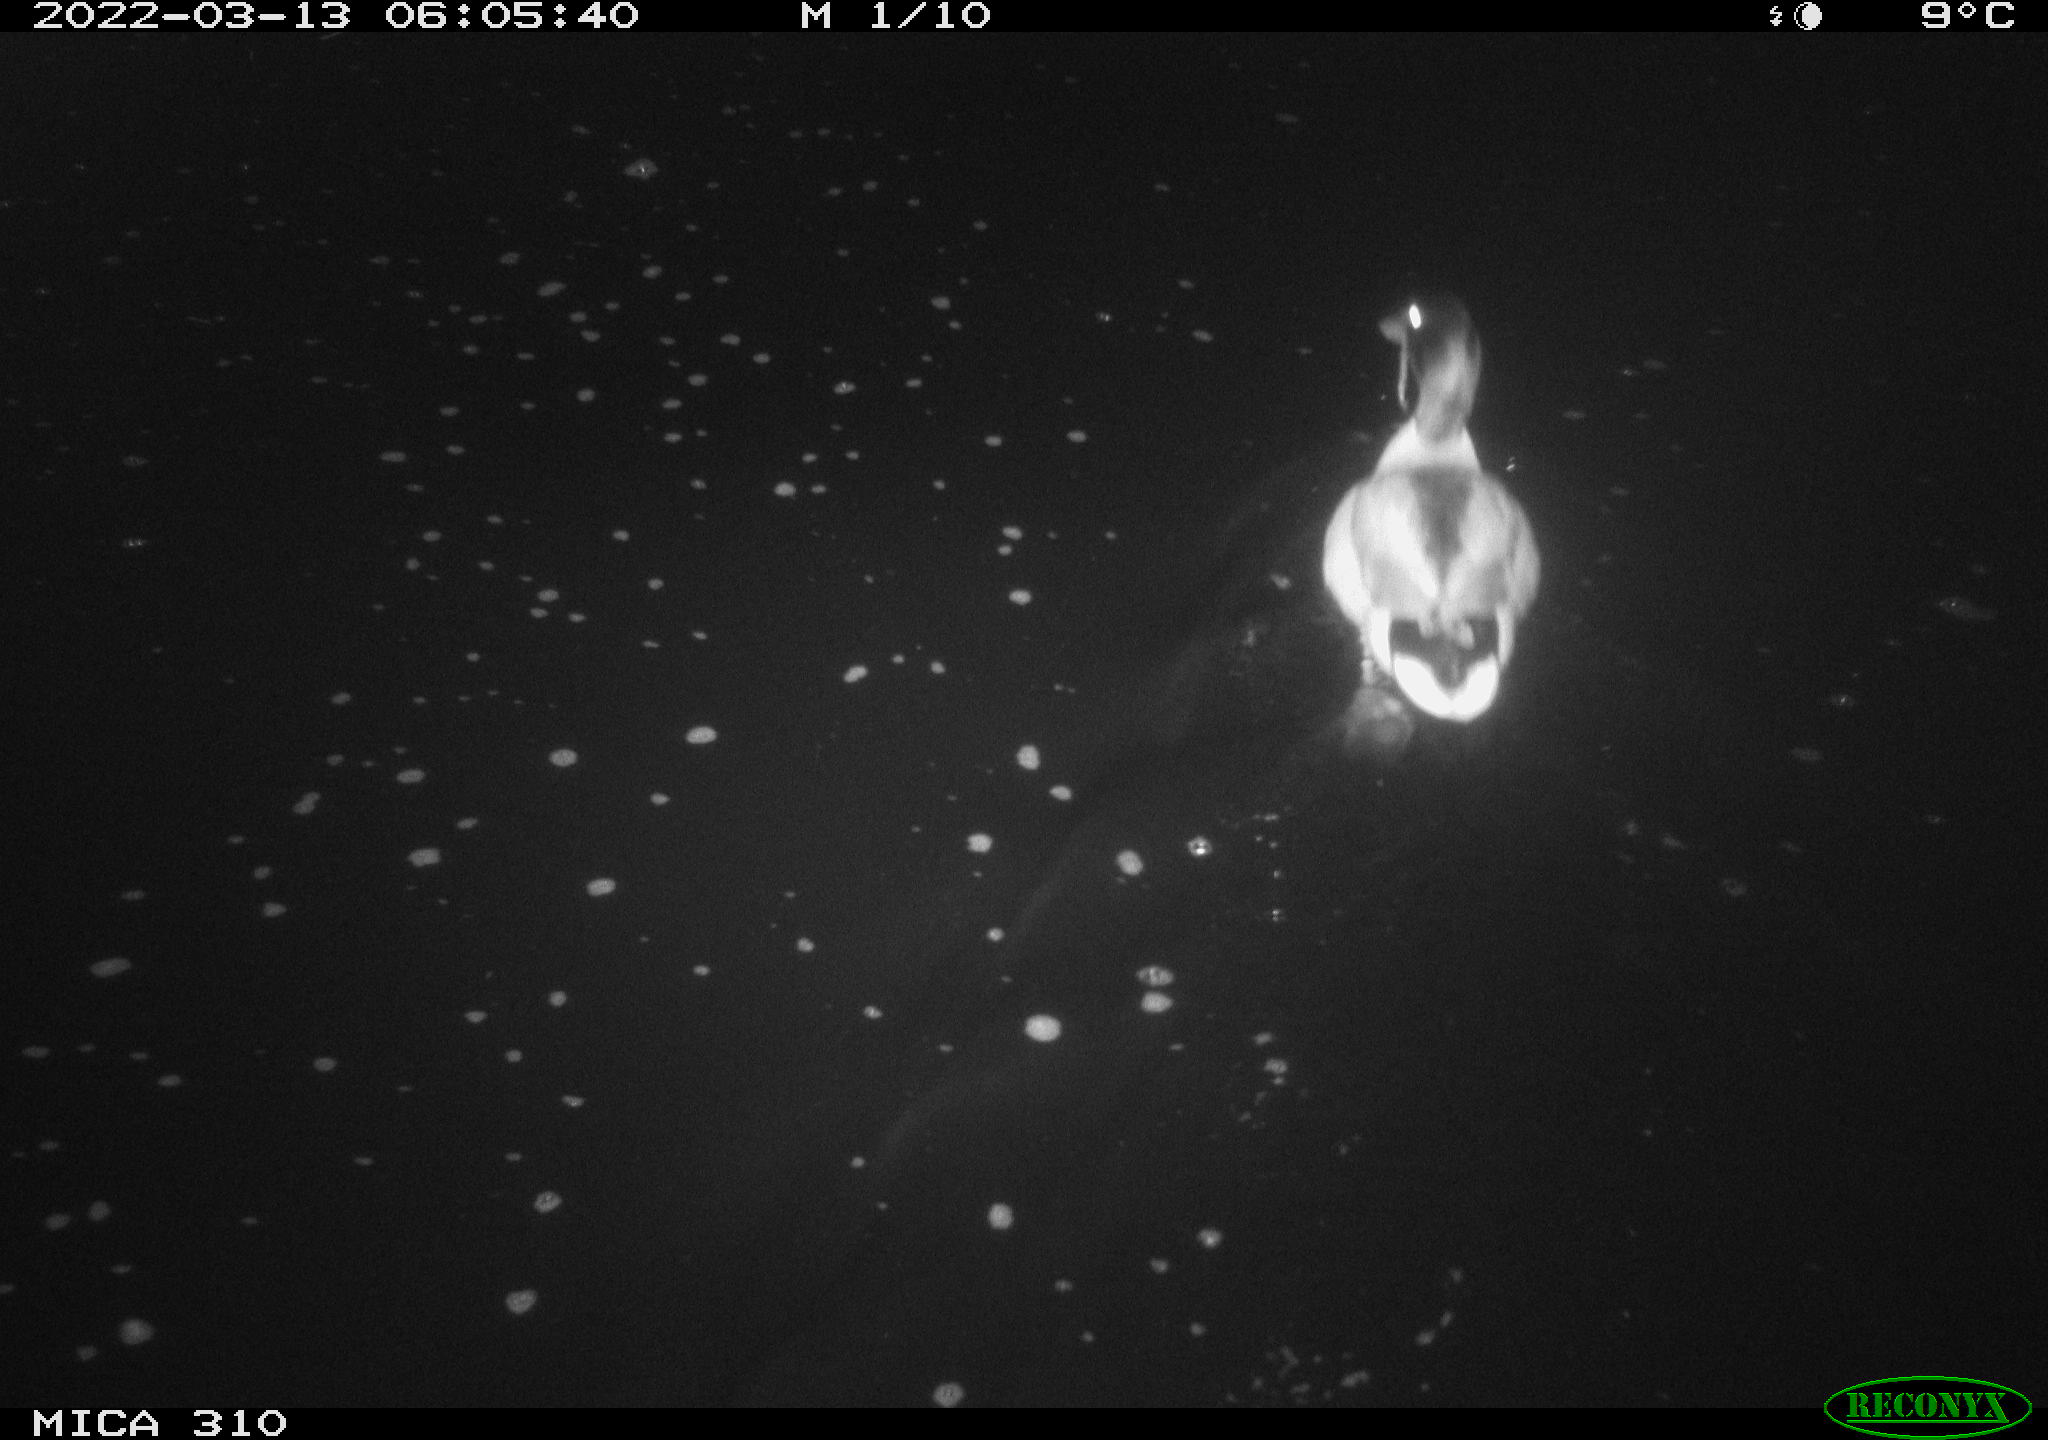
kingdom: Animalia
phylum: Chordata
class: Aves
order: Anseriformes
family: Anatidae
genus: Anas
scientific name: Anas platyrhynchos
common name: Mallard
